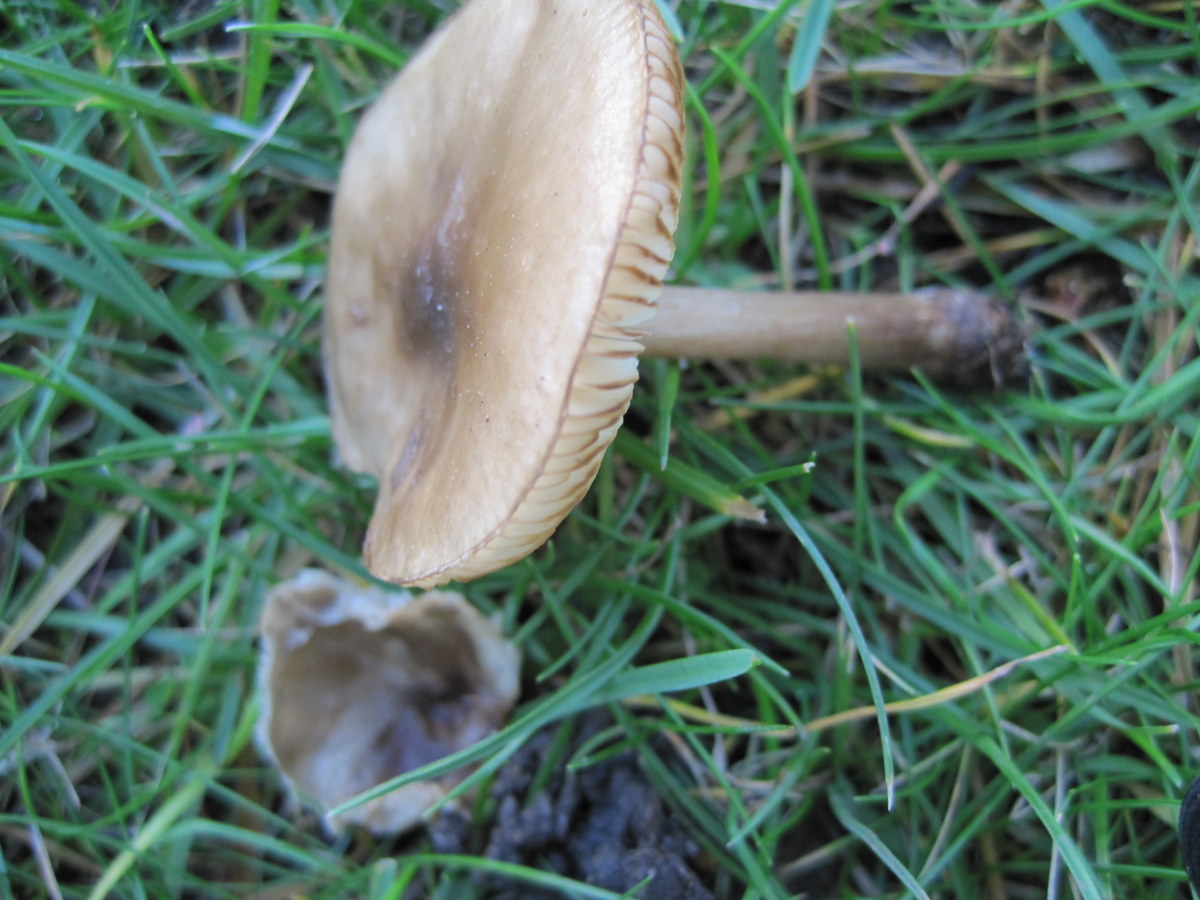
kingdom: Fungi
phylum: Basidiomycota
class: Agaricomycetes
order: Agaricales
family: Tricholomataceae
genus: Melanoleuca
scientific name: Melanoleuca polioleuca
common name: almindelig munkehat
